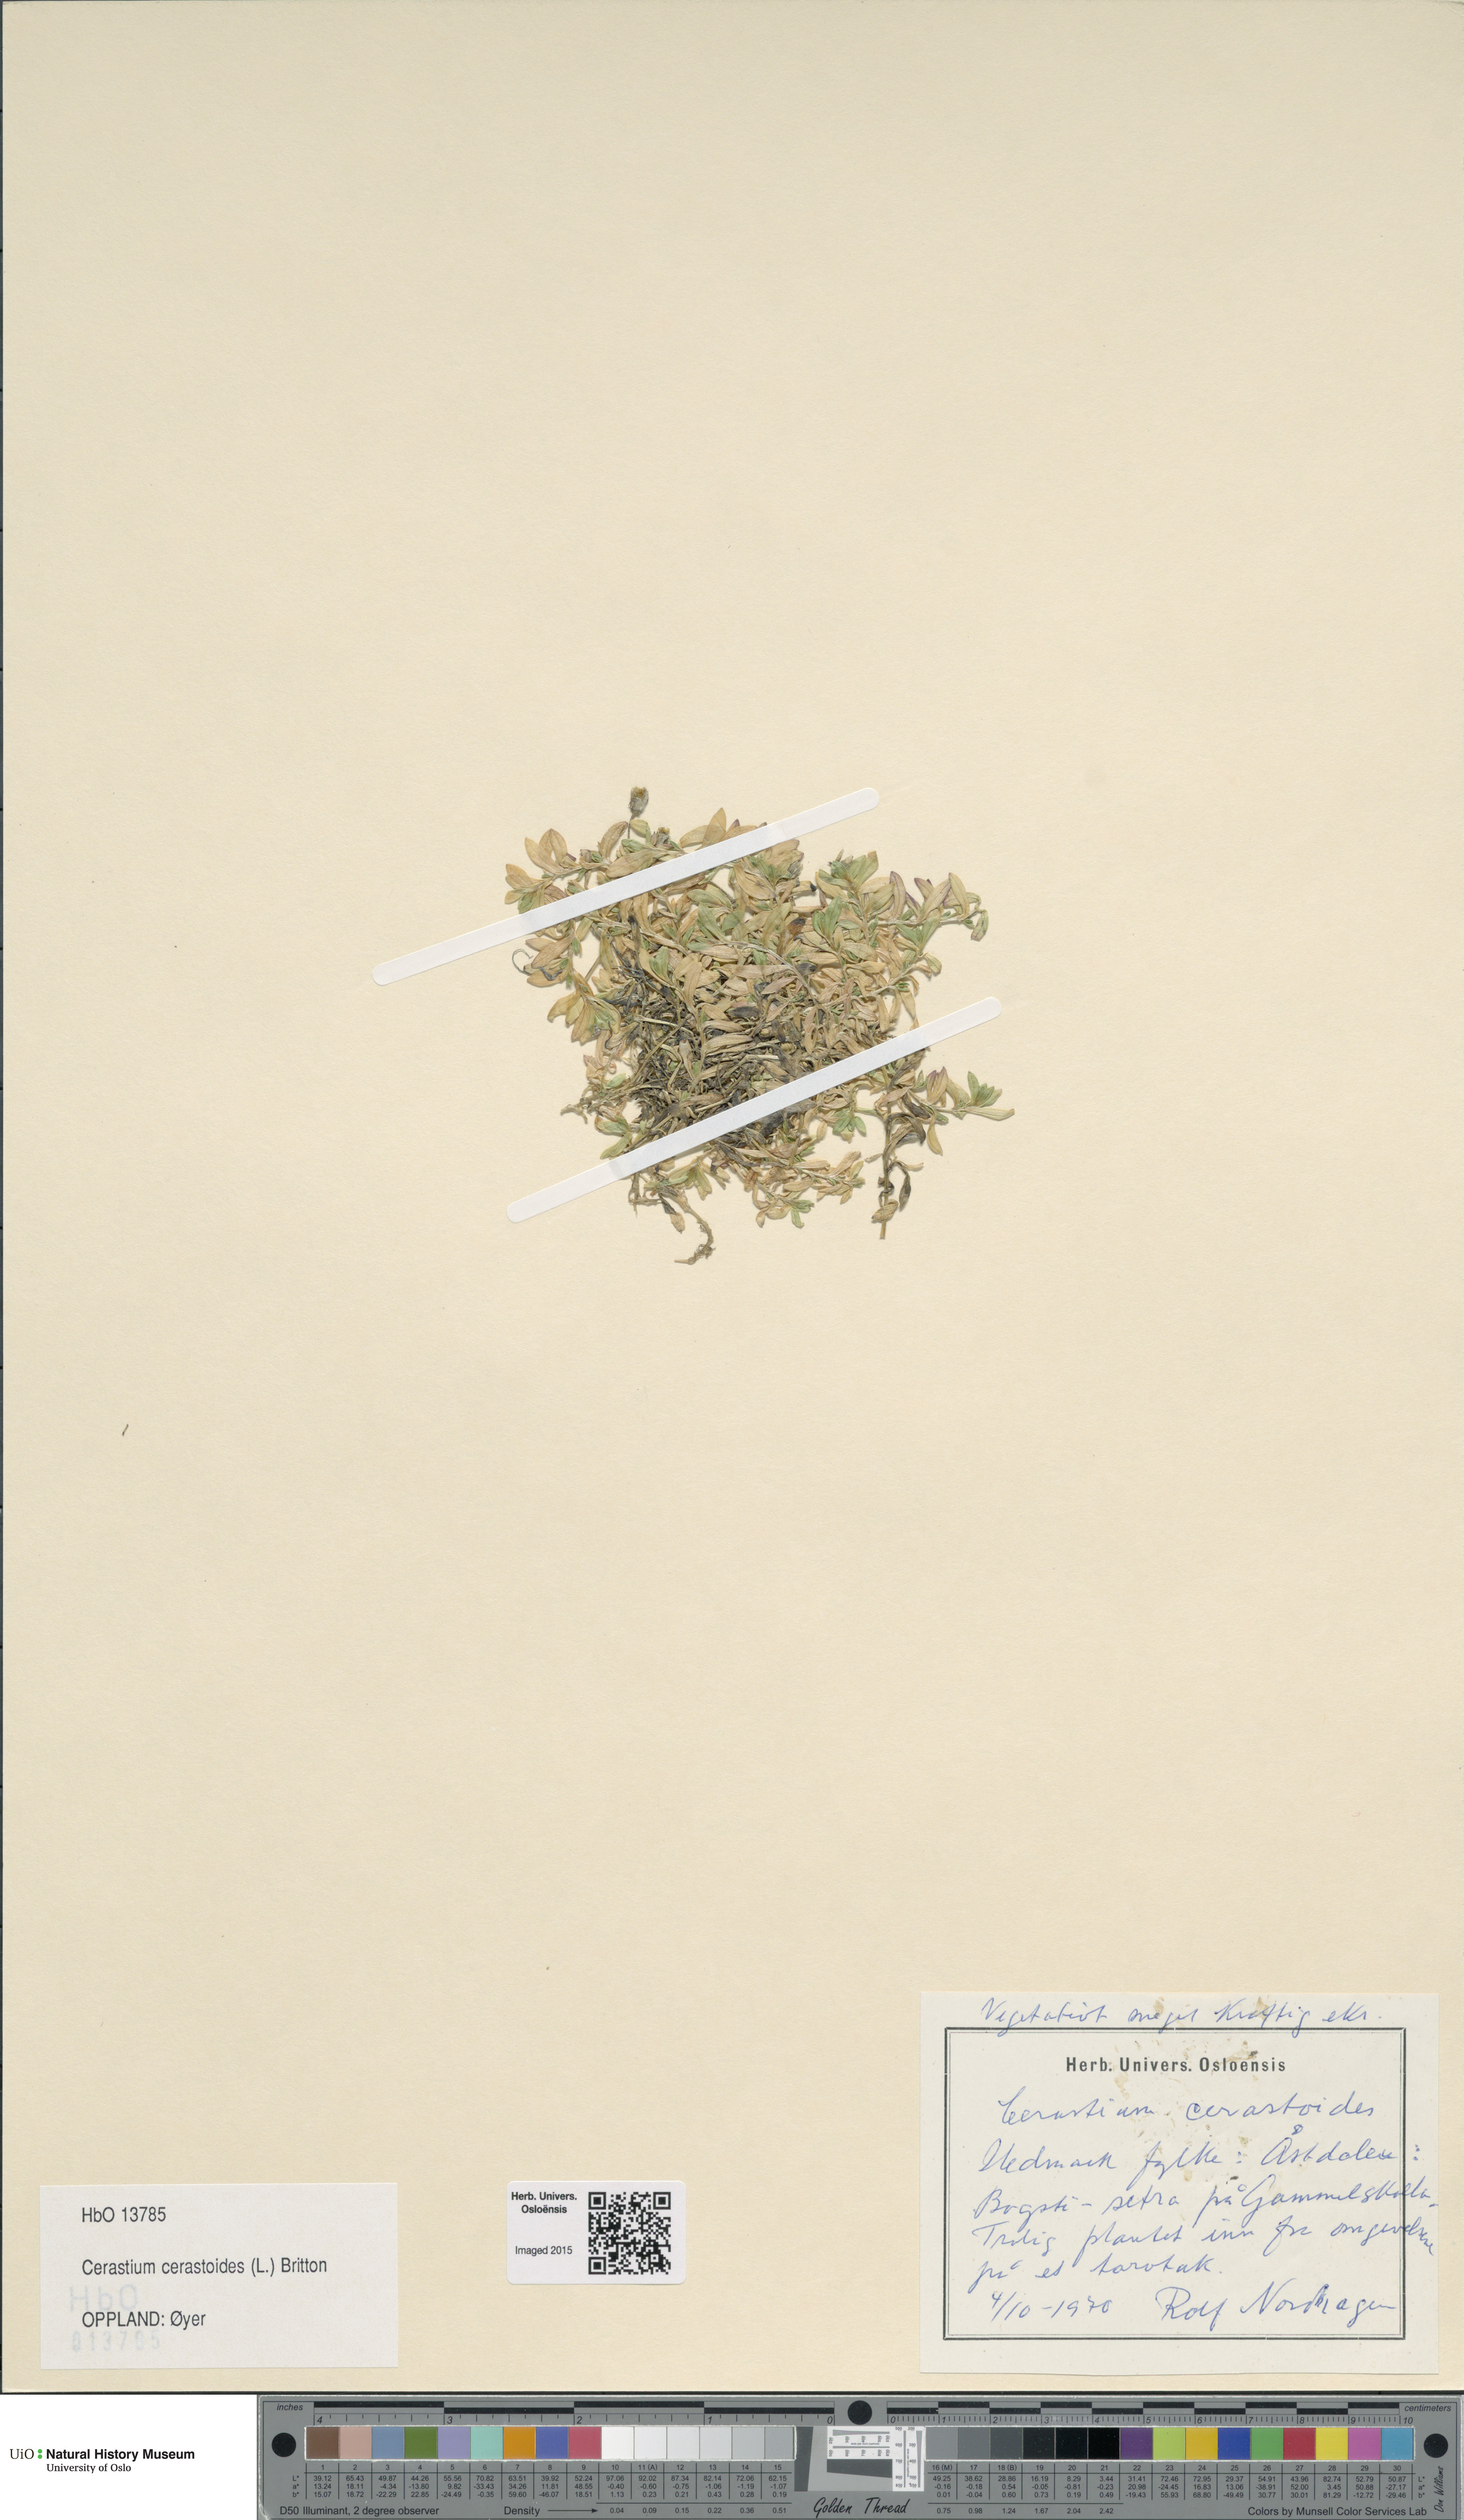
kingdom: Plantae
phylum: Tracheophyta
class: Magnoliopsida
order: Caryophyllales
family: Caryophyllaceae
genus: Dichodon
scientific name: Dichodon cerastoides
